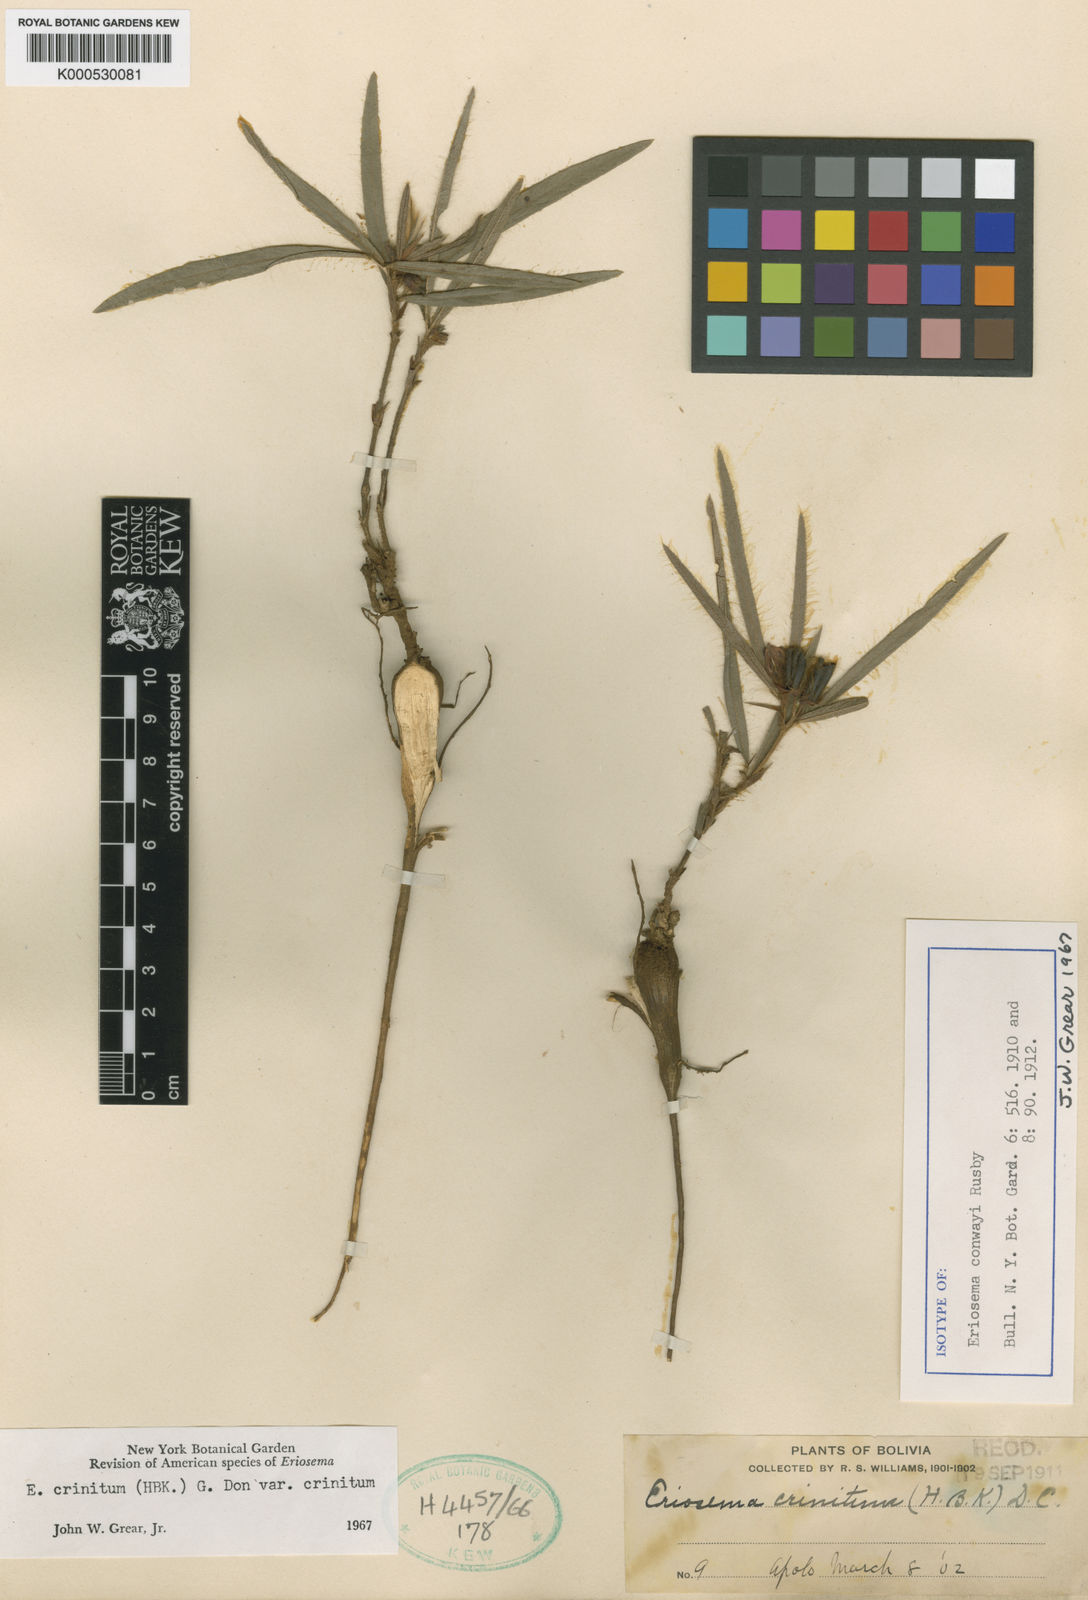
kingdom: Plantae
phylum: Tracheophyta
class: Magnoliopsida
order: Fabales
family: Fabaceae
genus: Eriosema
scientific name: Eriosema crinitum
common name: Sand pea
